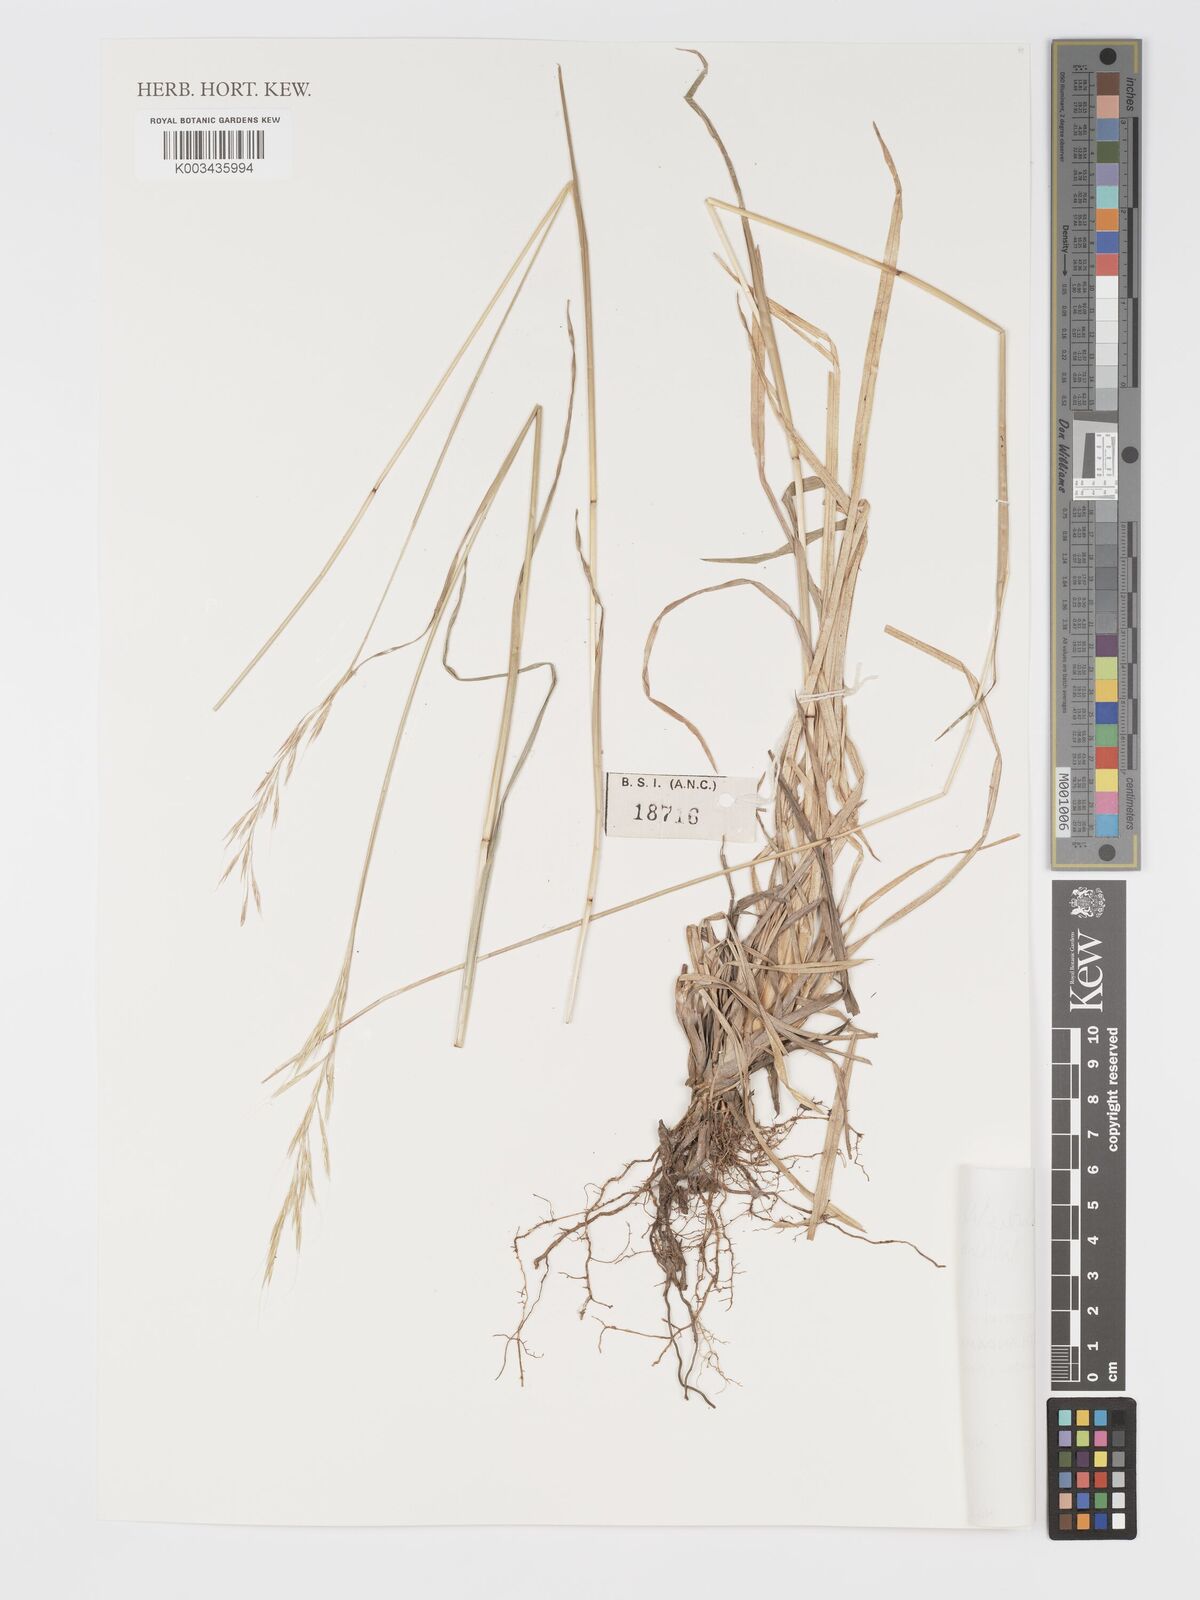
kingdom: Plantae
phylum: Tracheophyta
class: Liliopsida
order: Poales
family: Poaceae
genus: Chrysopogon
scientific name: Chrysopogon gryllus
